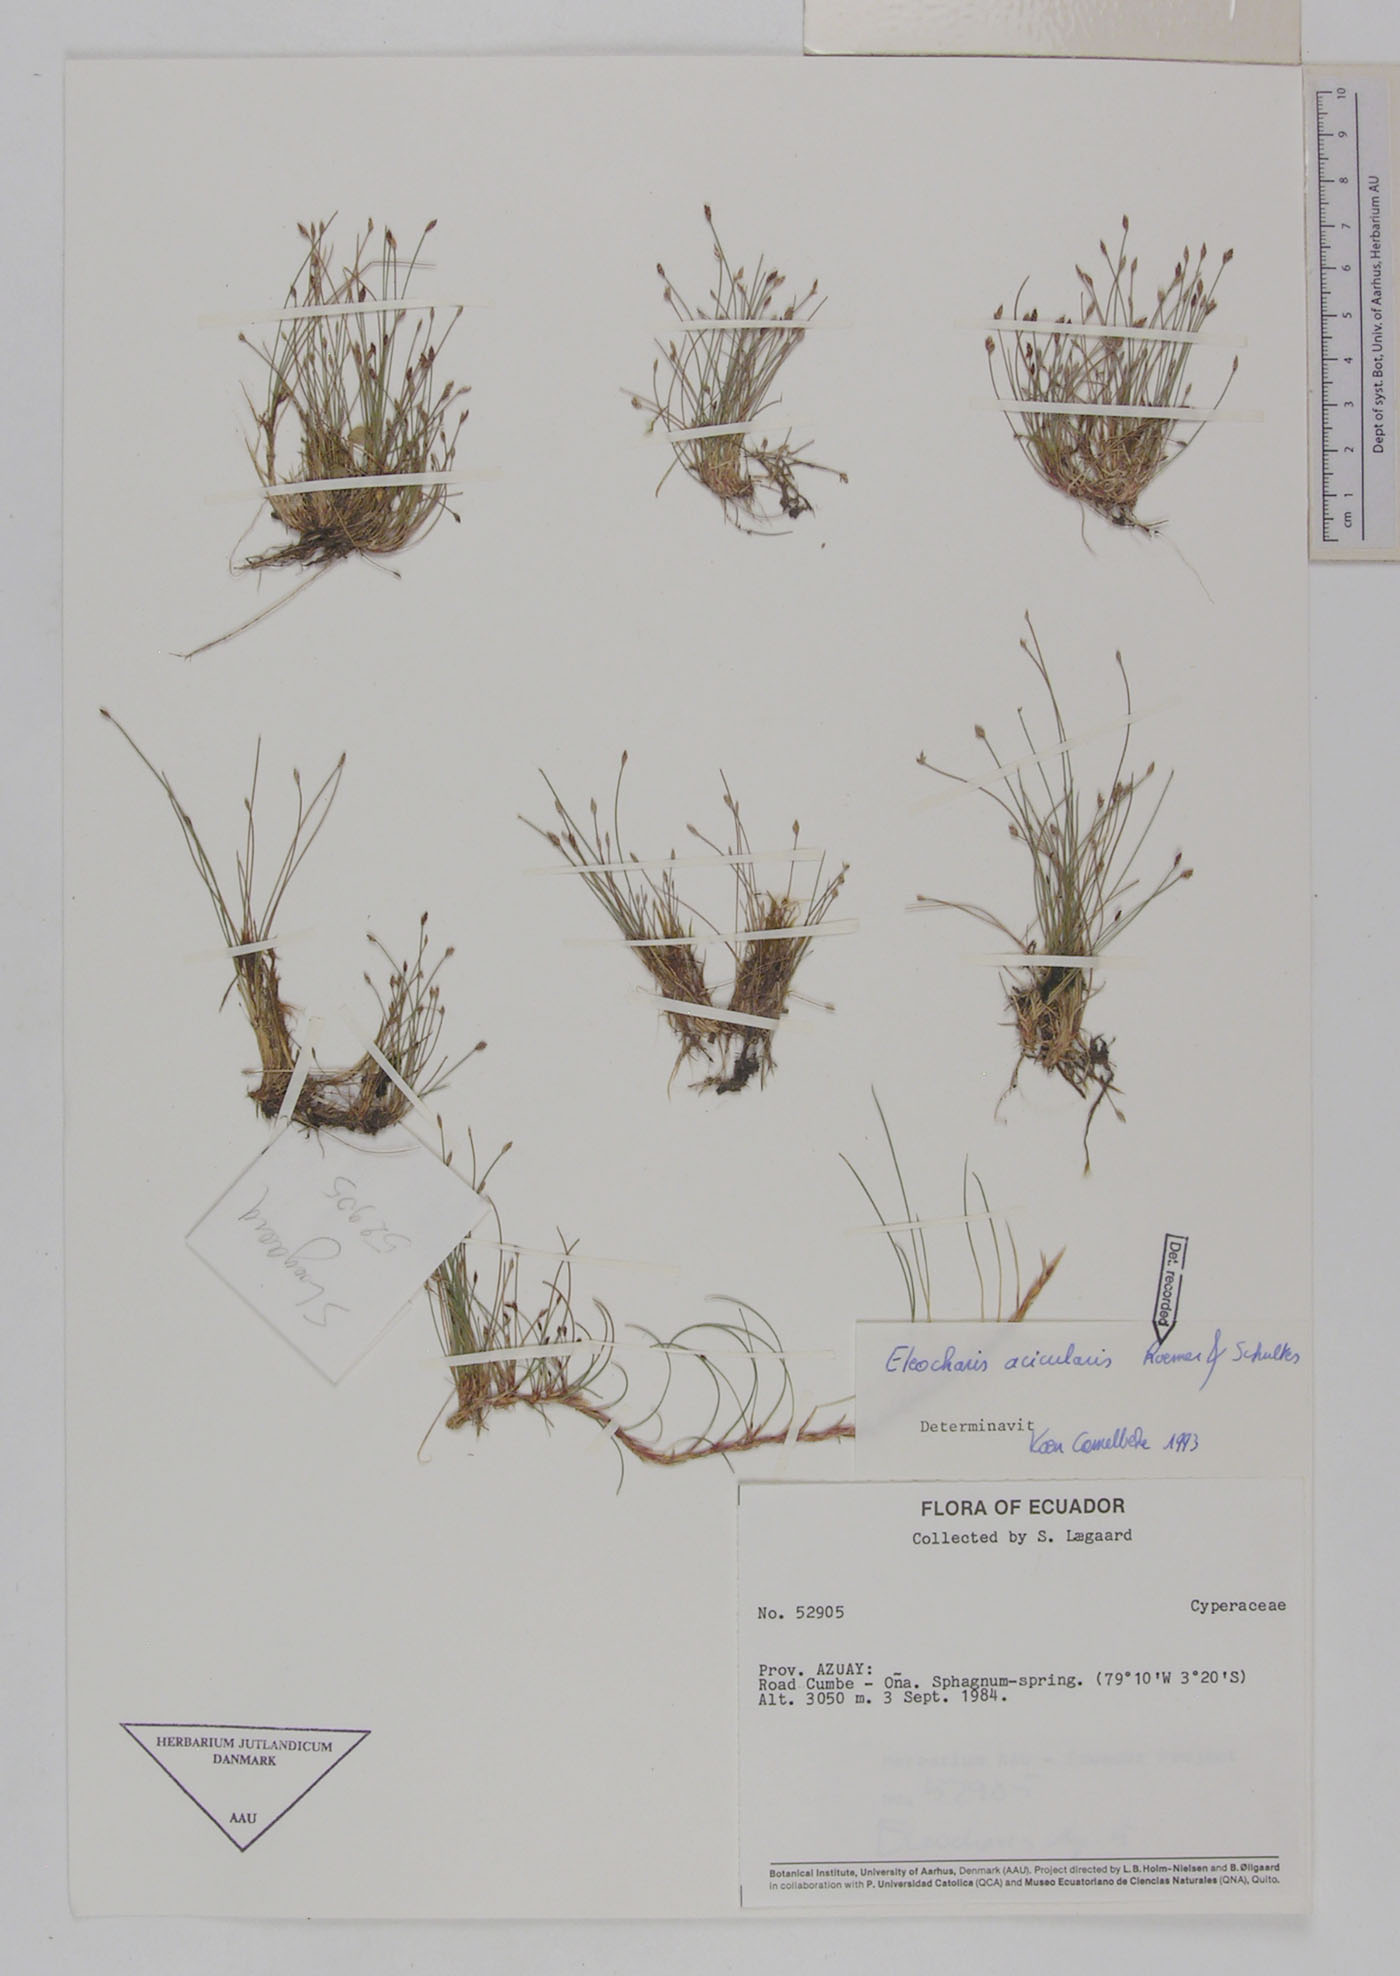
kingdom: Plantae
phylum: Tracheophyta
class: Liliopsida
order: Poales
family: Cyperaceae
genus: Eleocharis
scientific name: Eleocharis acicularis
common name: Needle spike-rush
